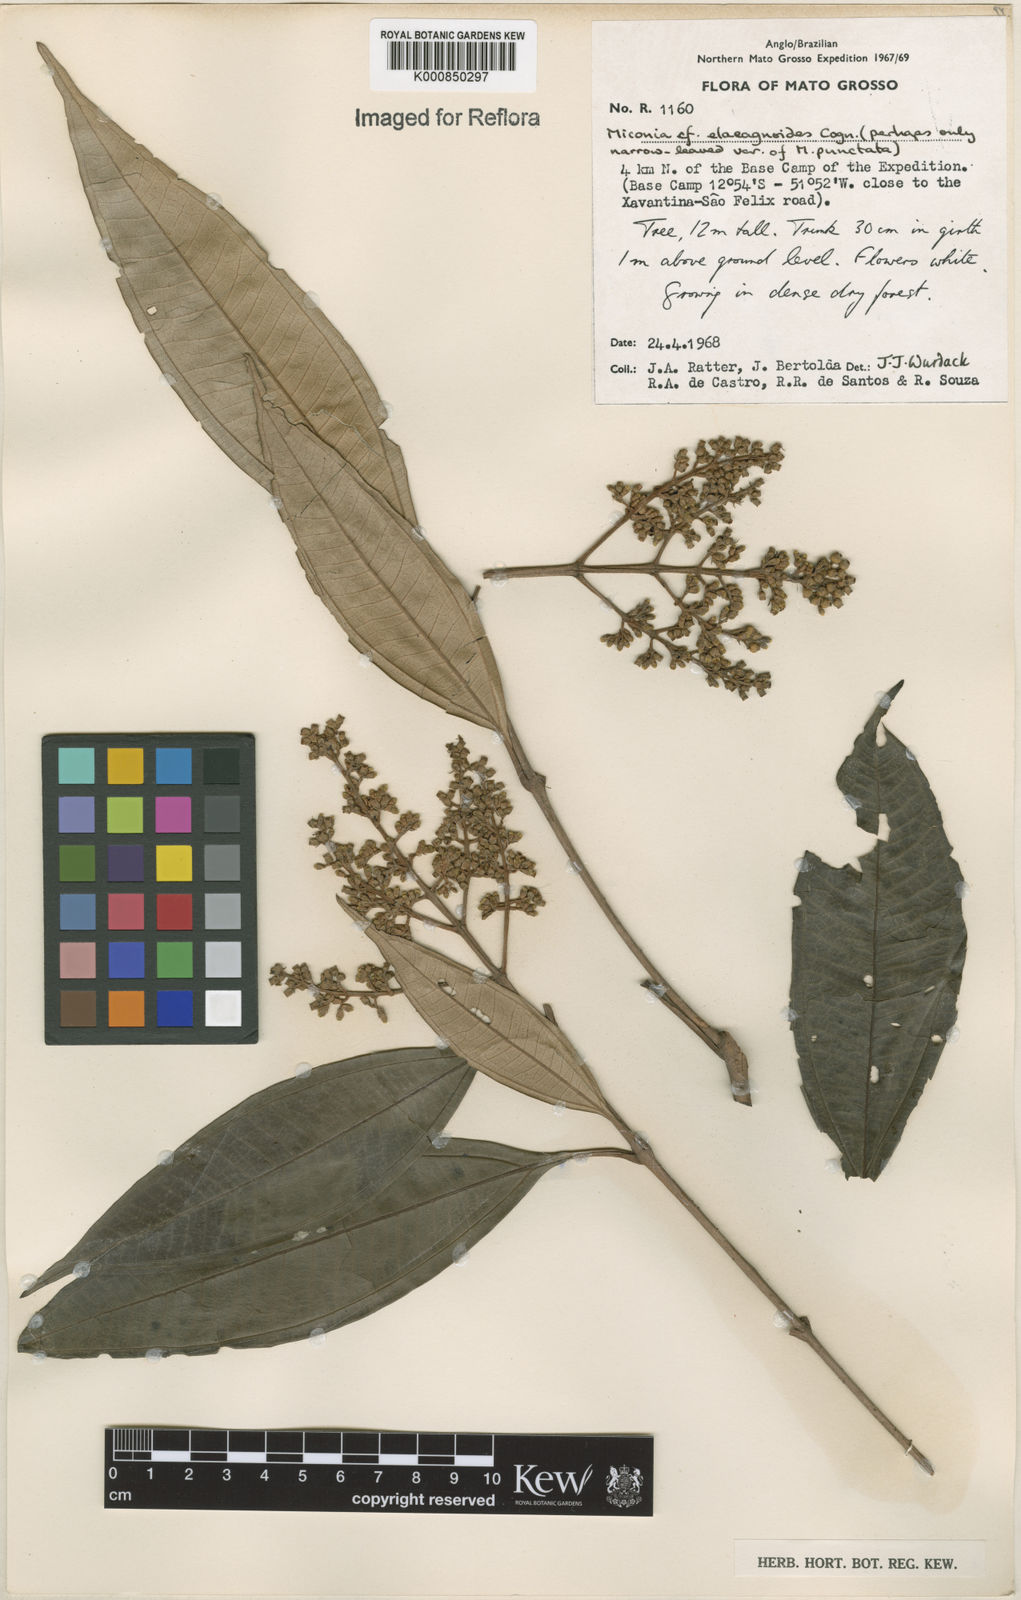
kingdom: Plantae
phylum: Tracheophyta
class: Magnoliopsida
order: Myrtales
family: Melastomataceae
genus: Miconia
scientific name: Miconia
